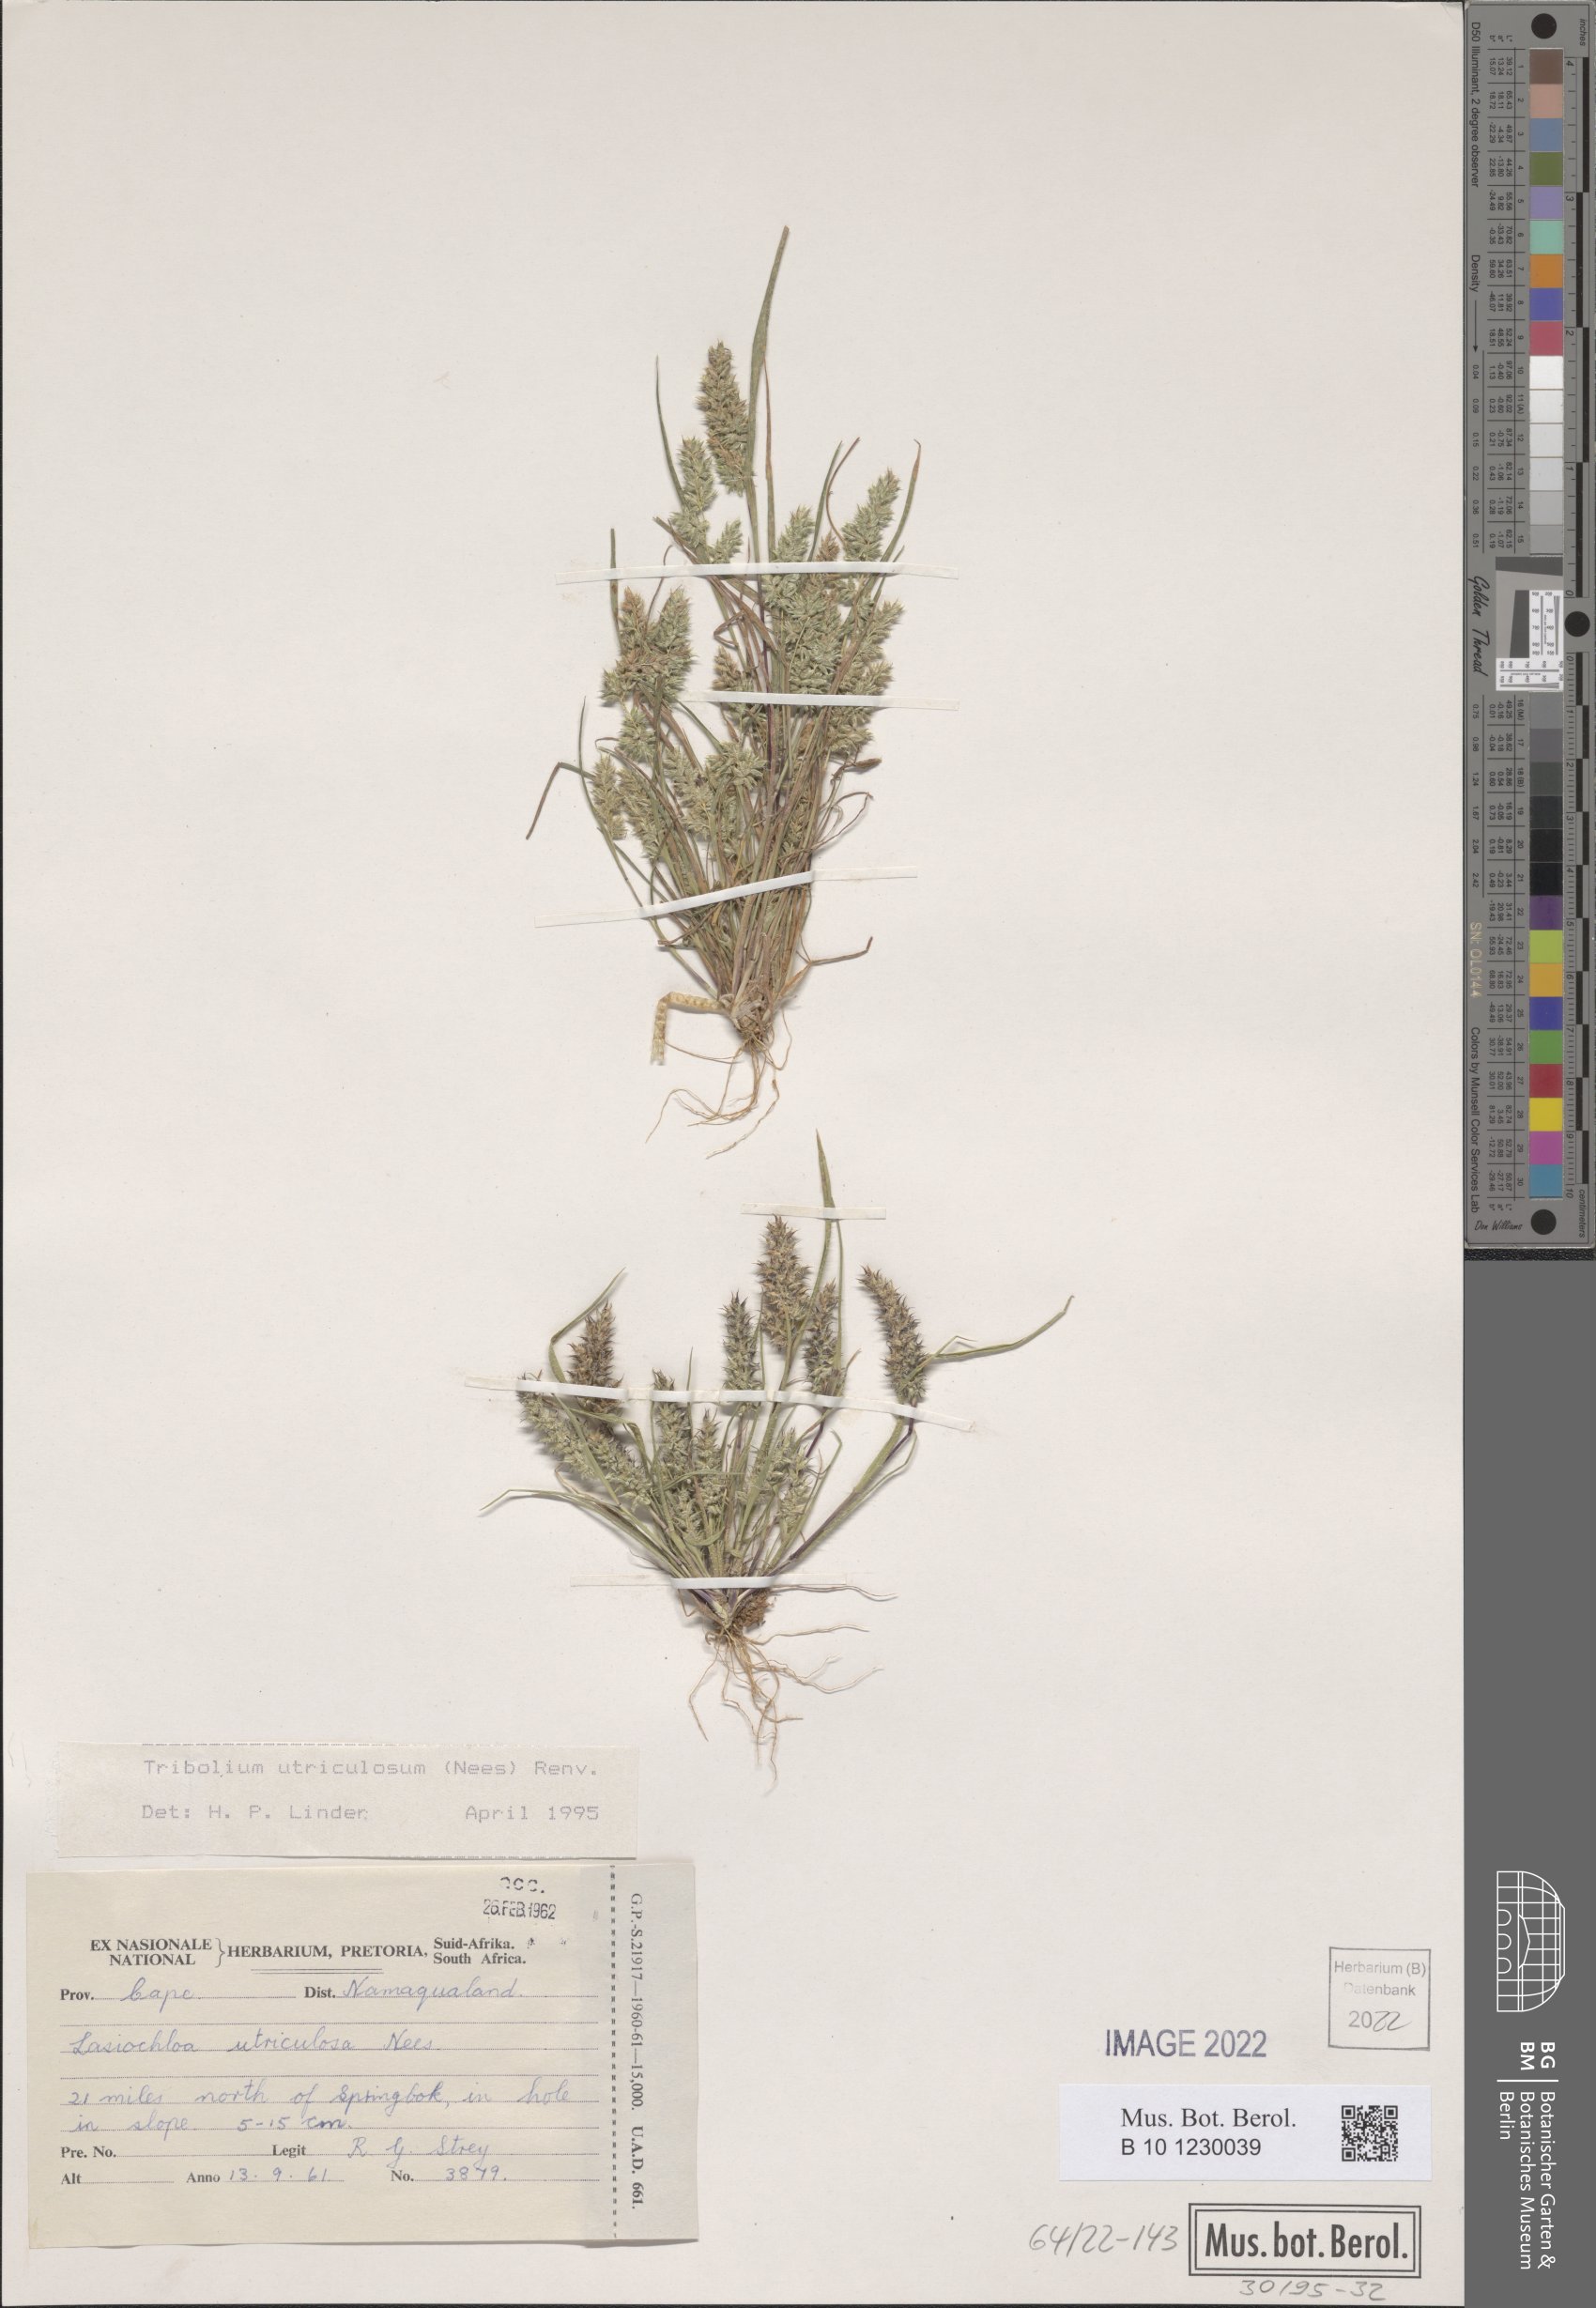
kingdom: Plantae
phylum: Tracheophyta
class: Liliopsida
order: Poales
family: Poaceae
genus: Tribolium
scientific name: Tribolium utriculosum
